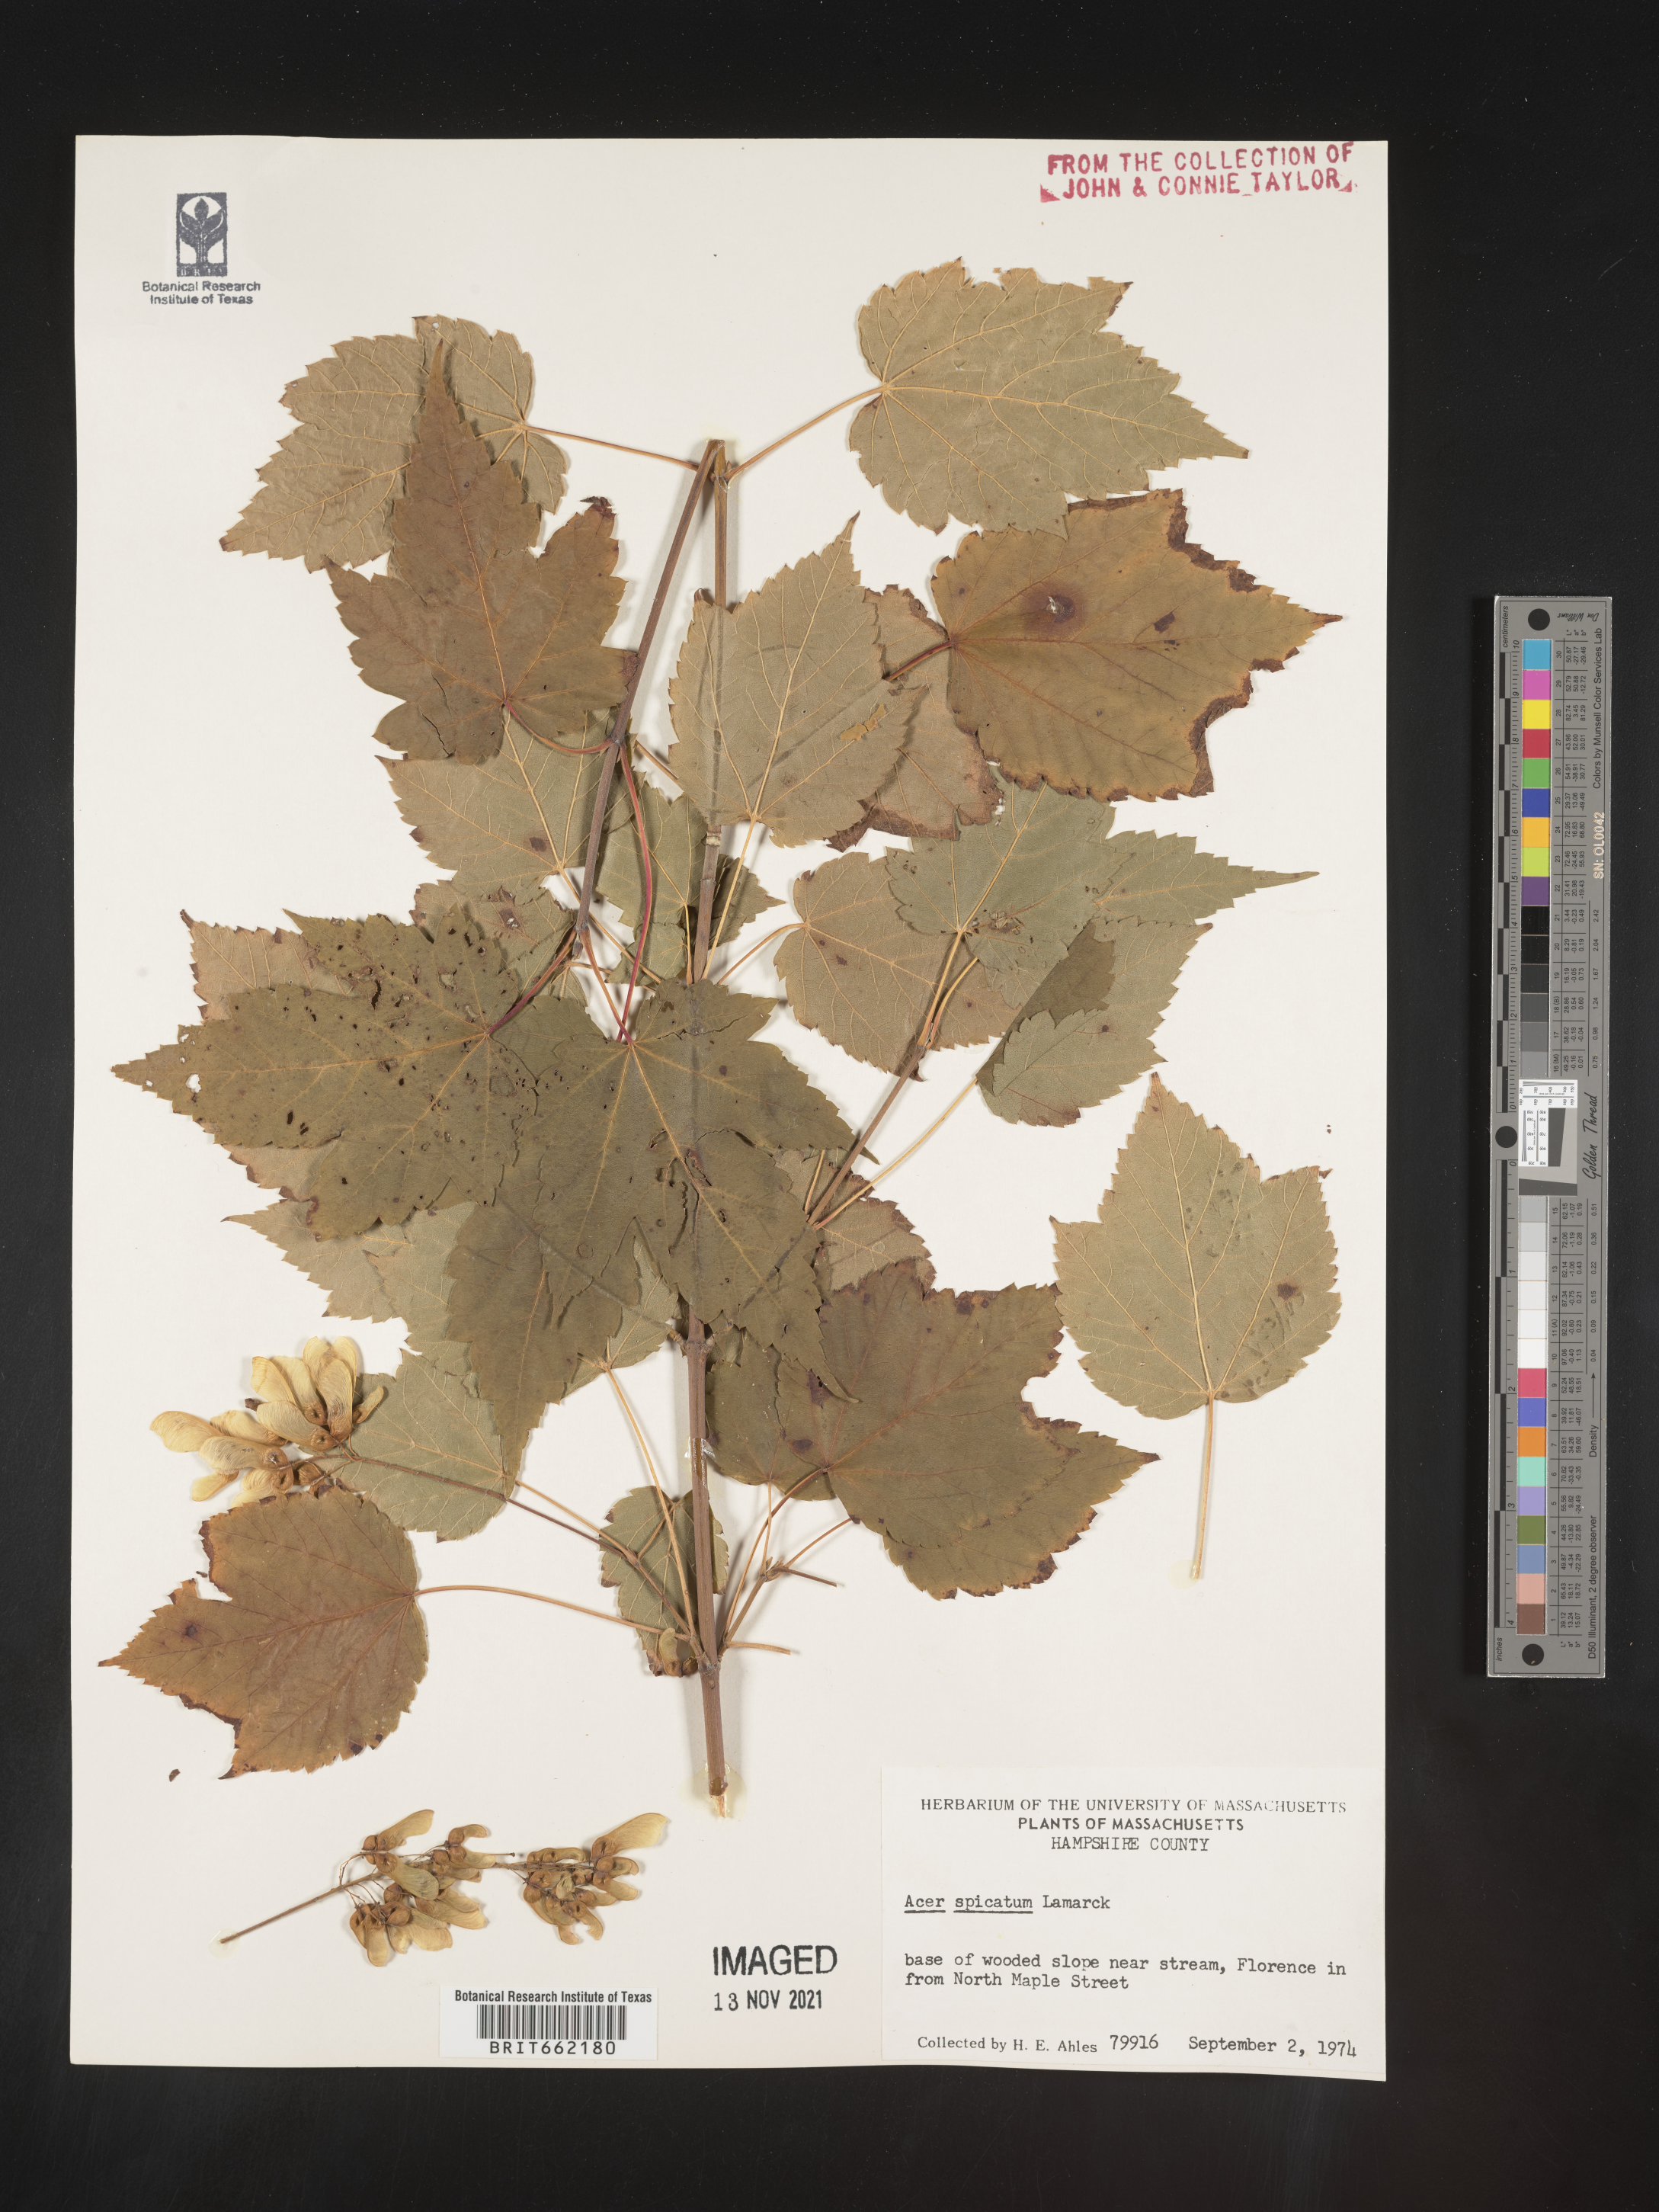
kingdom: Plantae
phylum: Tracheophyta
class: Magnoliopsida
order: Sapindales
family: Sapindaceae
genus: Acer
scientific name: Acer spicatum
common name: Mountain maple
